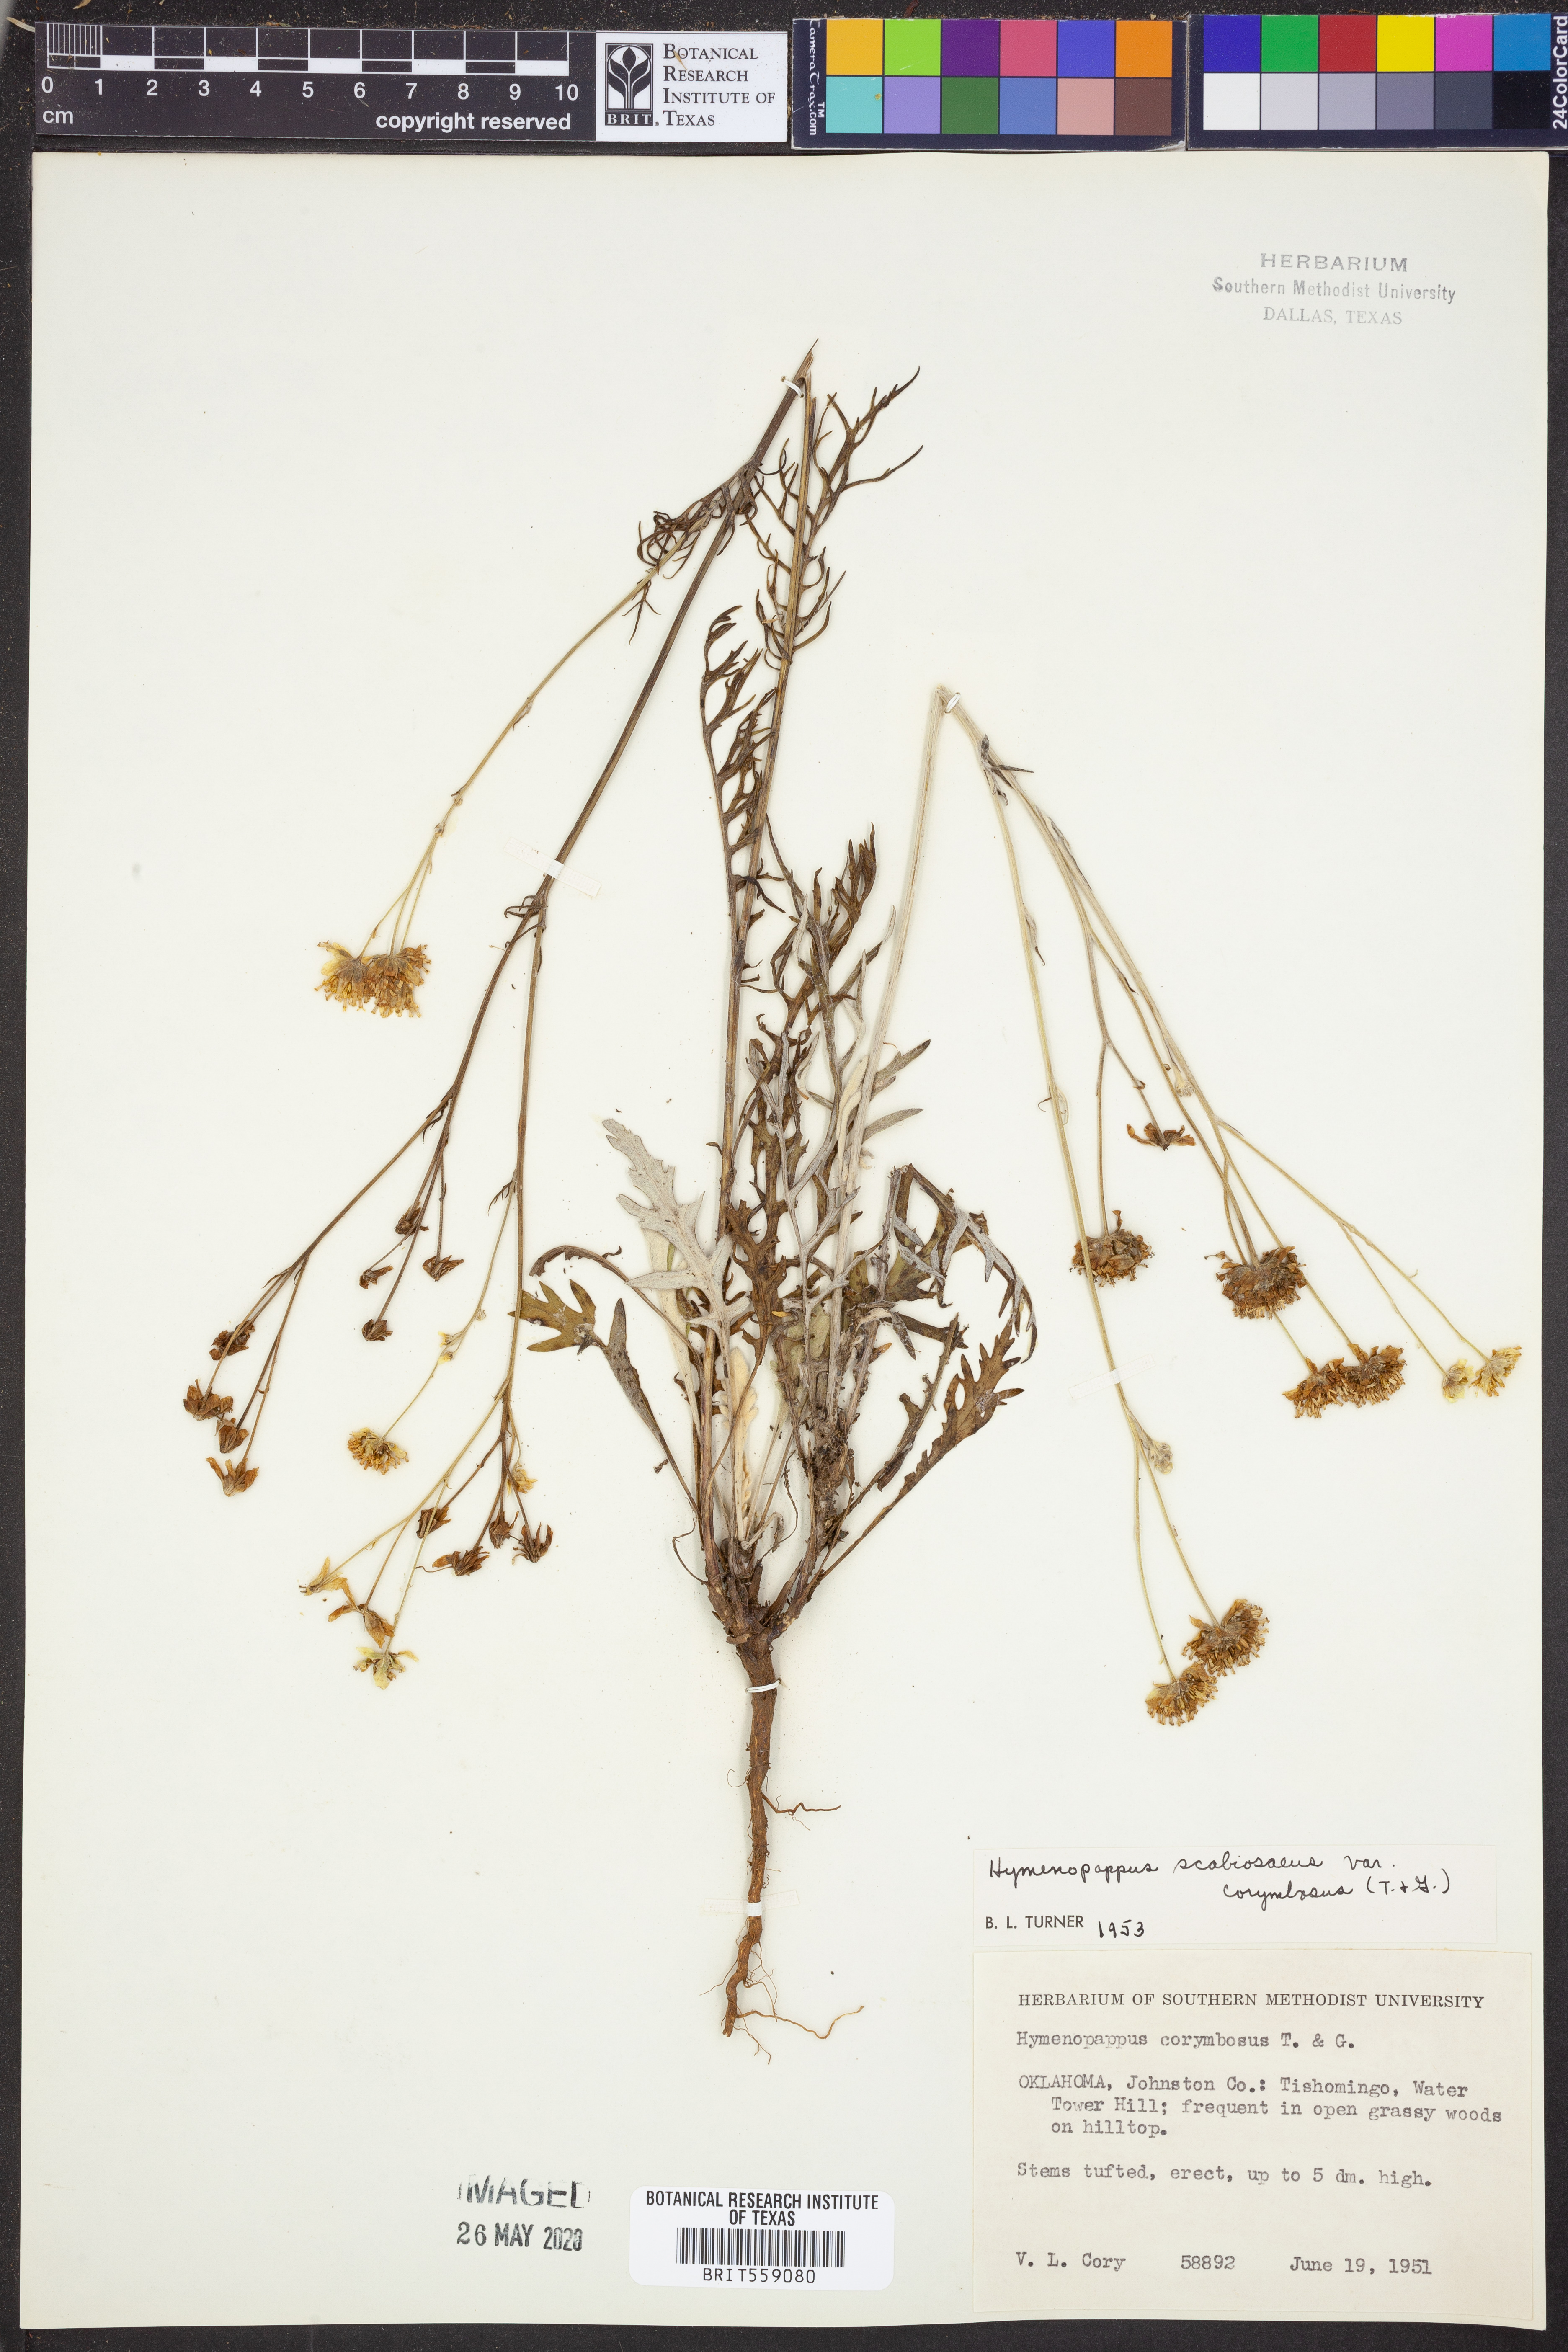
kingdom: Plantae
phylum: Tracheophyta
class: Magnoliopsida
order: Asterales
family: Asteraceae
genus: Hymenopappus
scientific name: Hymenopappus scabiosaeus
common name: Carolina woollywhite
